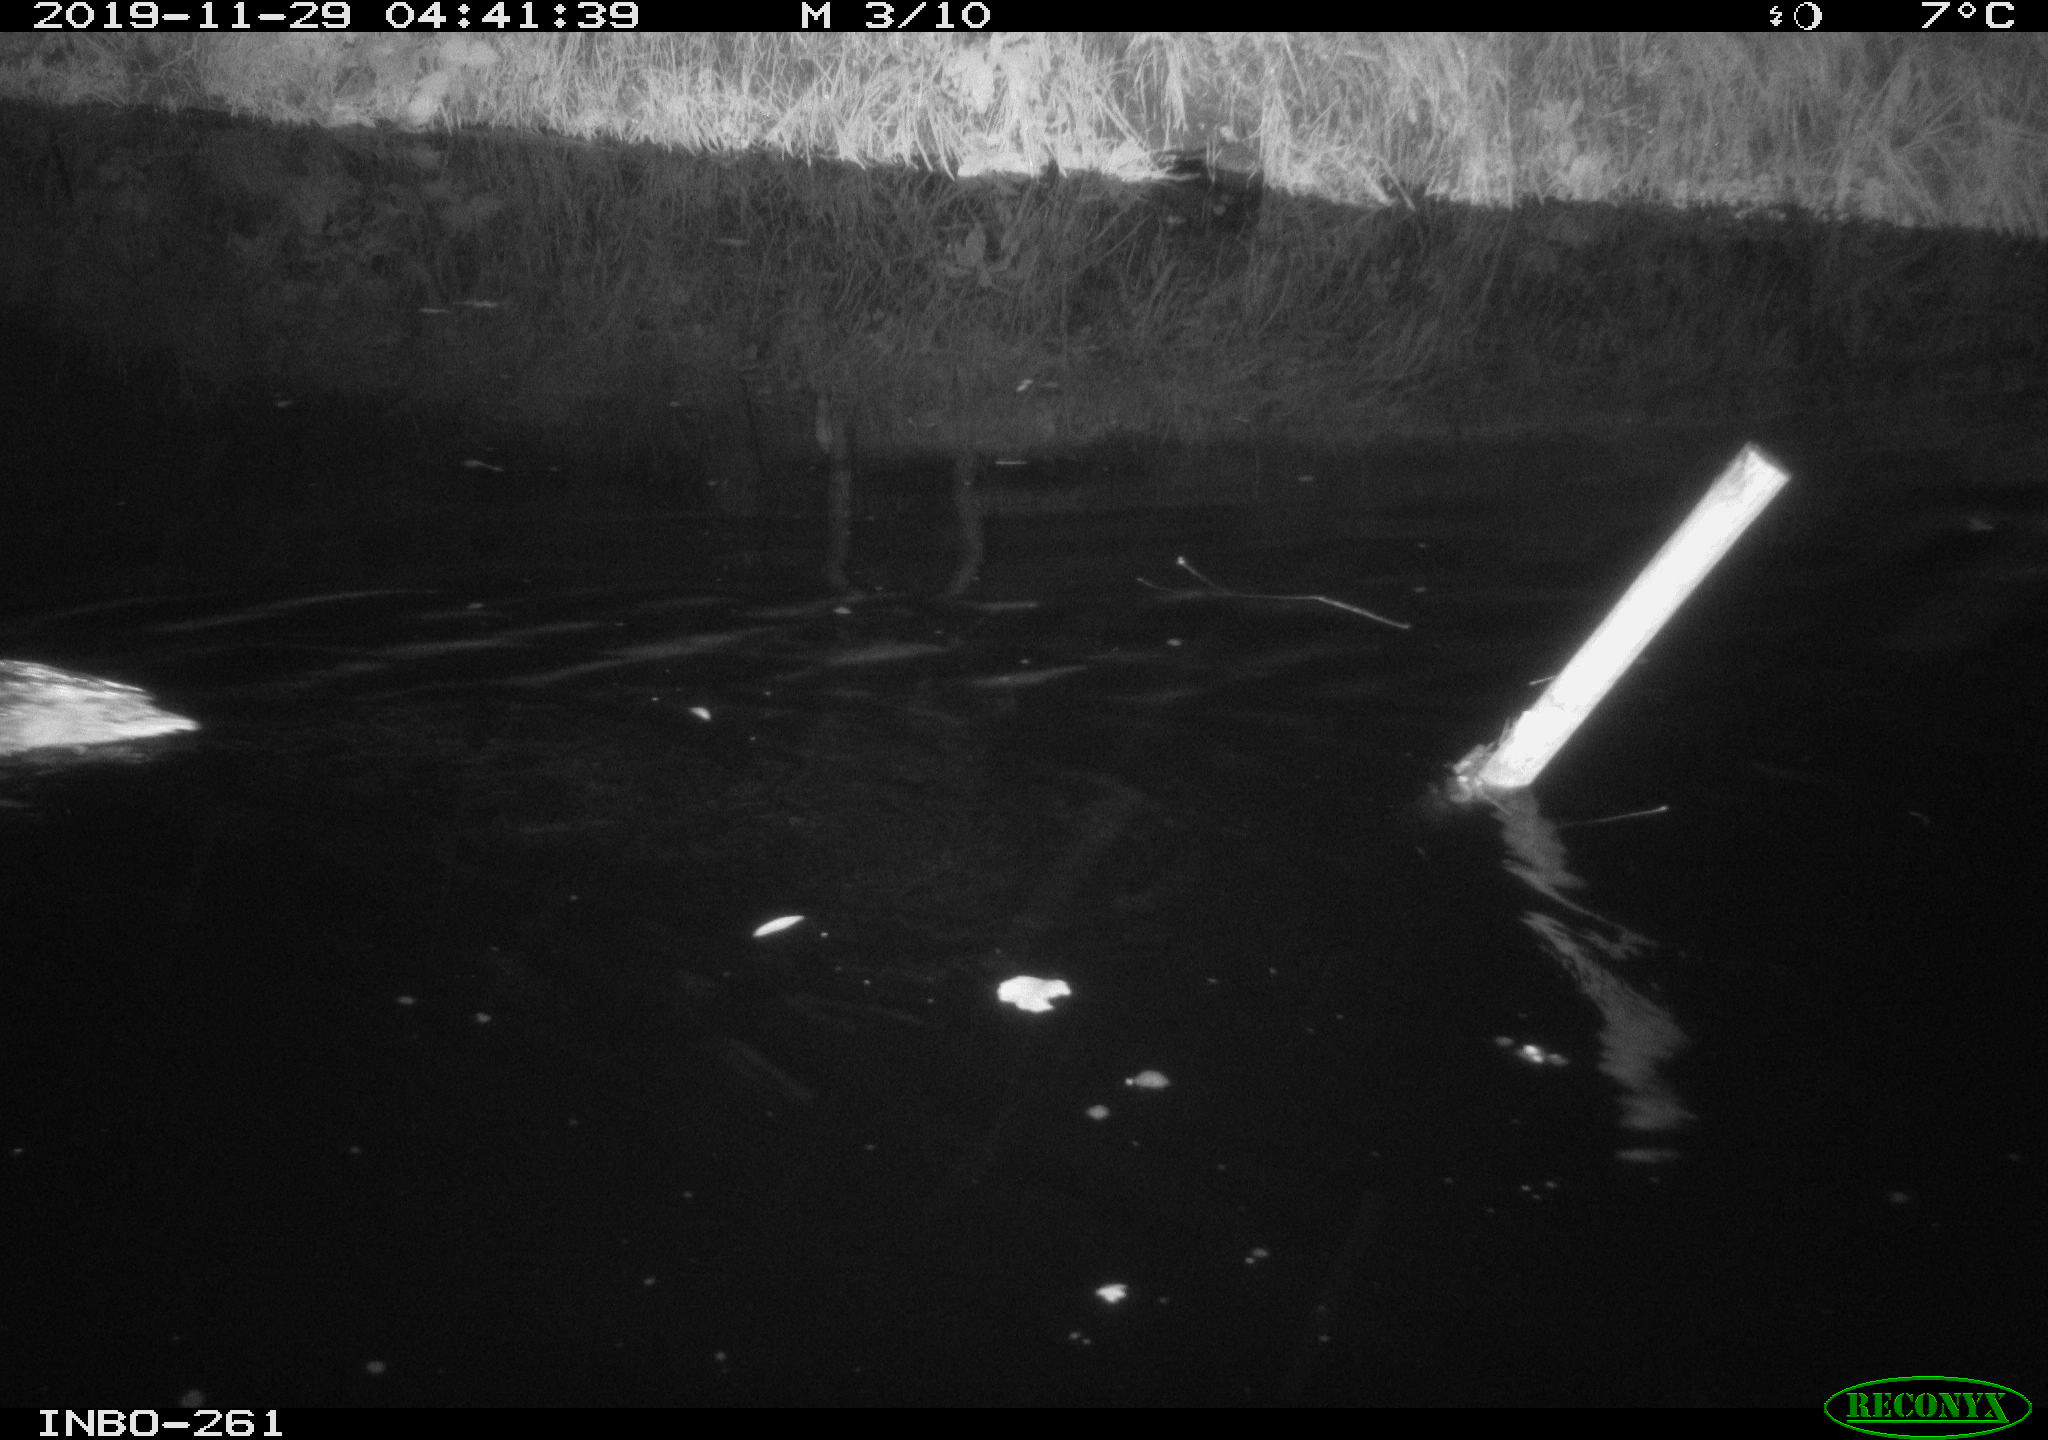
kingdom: Animalia
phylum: Chordata
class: Aves
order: Anseriformes
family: Anatidae
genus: Anas
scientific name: Anas platyrhynchos
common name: Mallard
